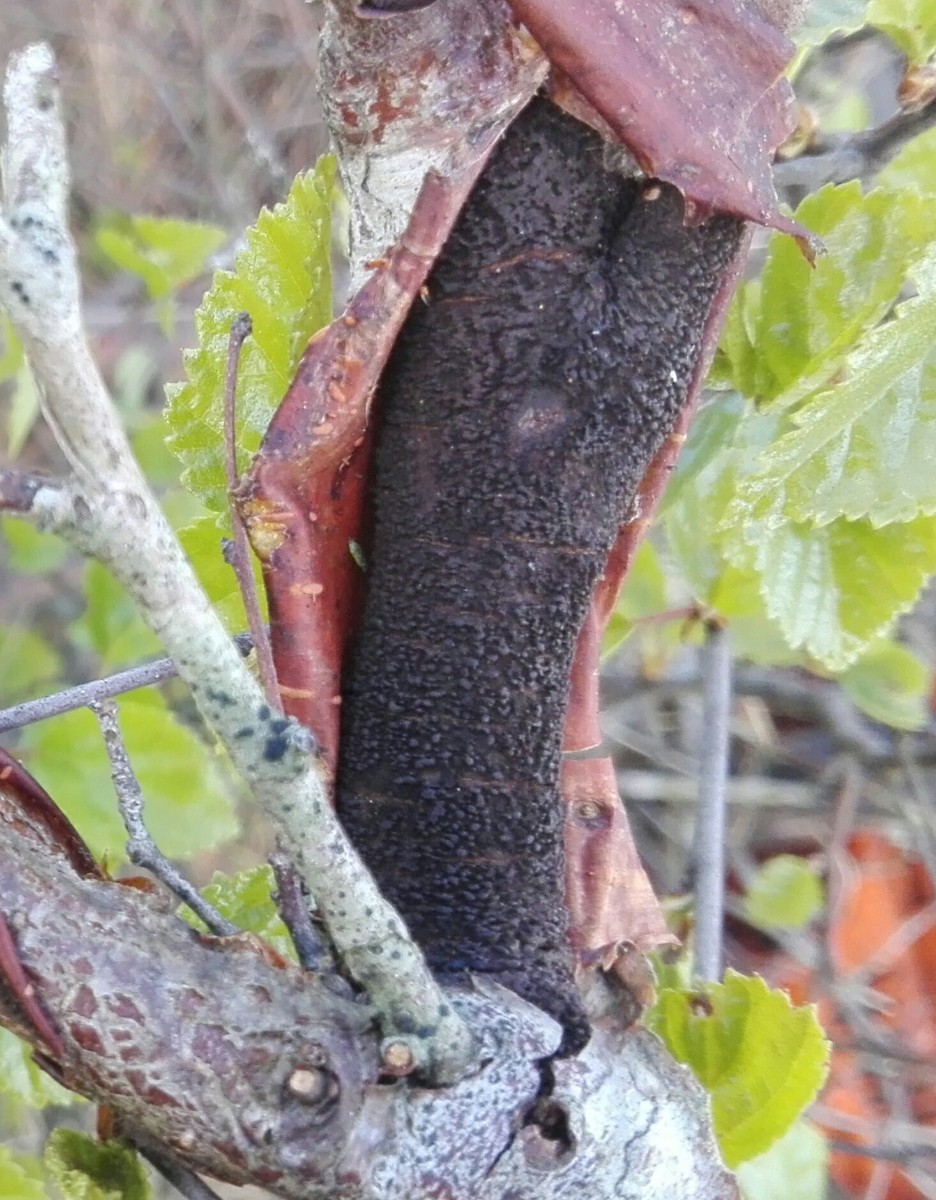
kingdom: Fungi
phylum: Ascomycota
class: Sordariomycetes
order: Diaporthales
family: Gnomoniaceae
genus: Xenotypa
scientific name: Xenotypa aterrima
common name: Birch bark stripper
